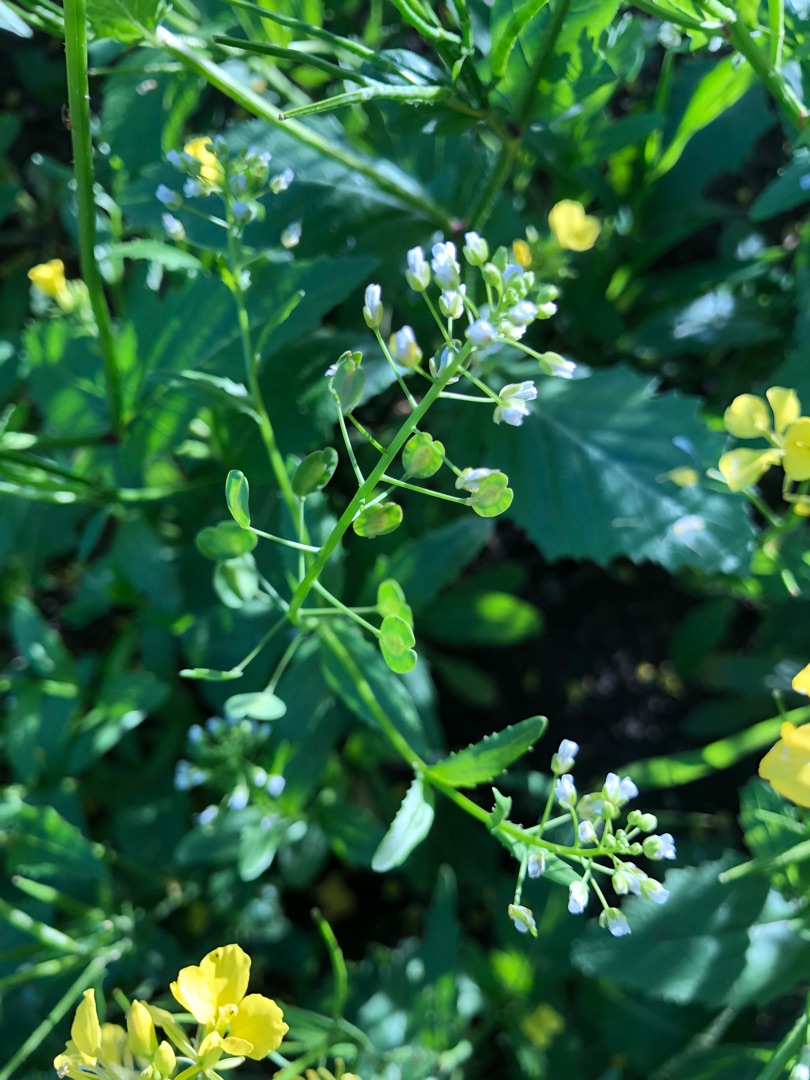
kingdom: Plantae
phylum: Tracheophyta
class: Magnoliopsida
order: Brassicales
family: Brassicaceae
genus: Thlaspi
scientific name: Thlaspi arvense
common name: Almindelig pengeurt
